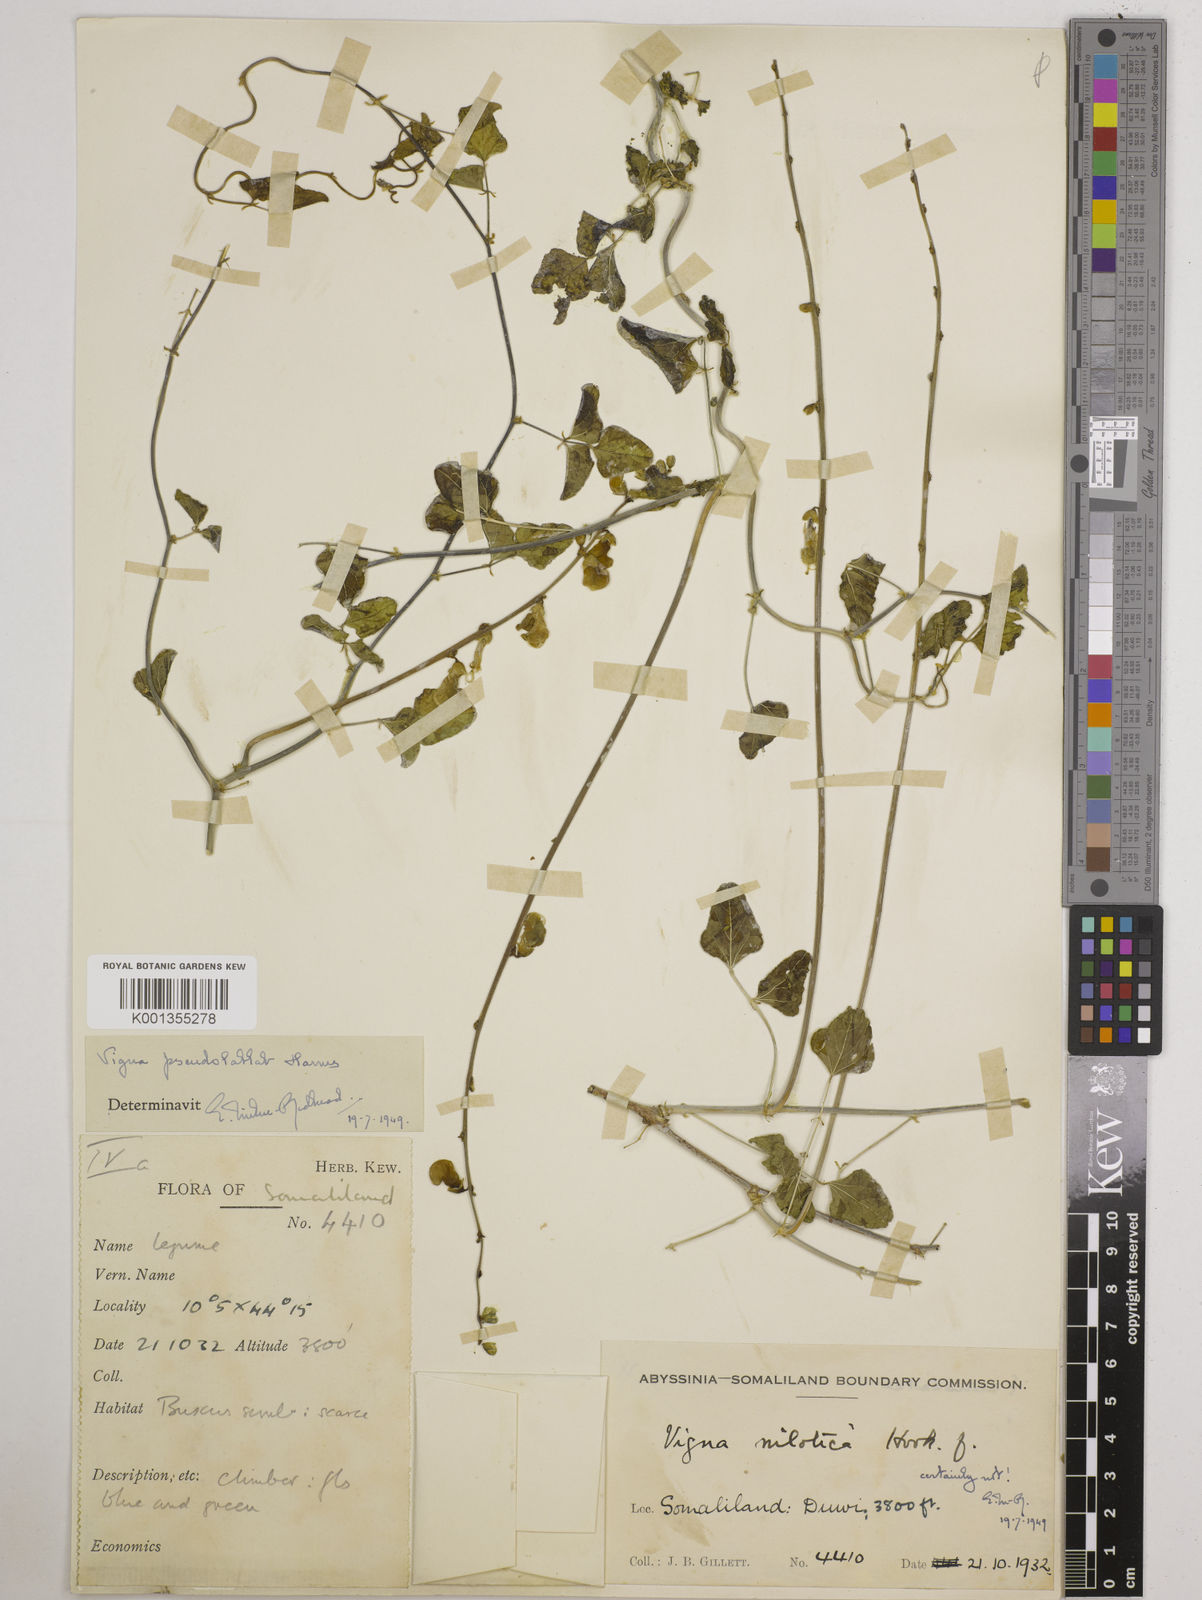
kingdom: Plantae
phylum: Tracheophyta
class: Magnoliopsida
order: Fabales
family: Fabaceae
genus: Vatovaea
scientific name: Vatovaea pseudolablab
